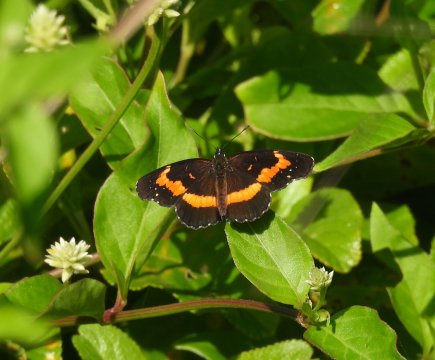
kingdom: Animalia
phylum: Arthropoda
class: Insecta
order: Lepidoptera
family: Nymphalidae
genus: Chlosyne
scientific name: Chlosyne lacinia
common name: Bordered Patch
